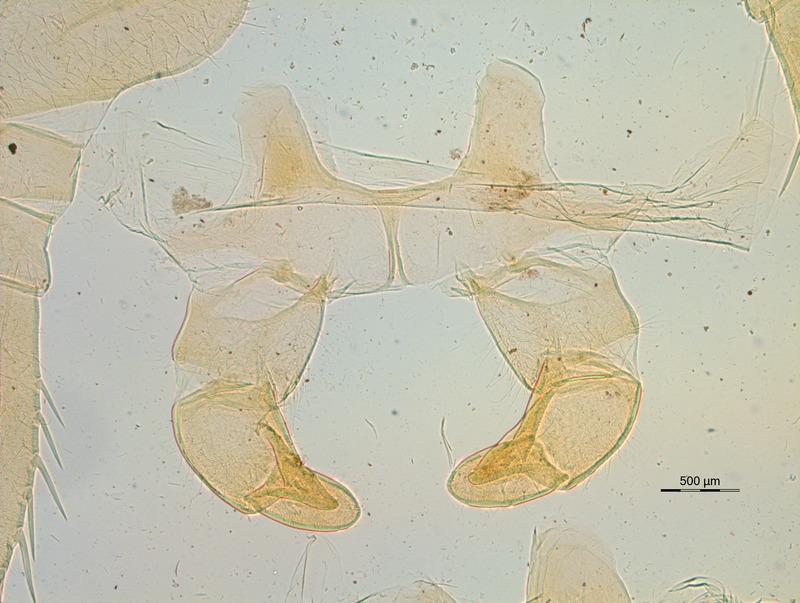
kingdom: Animalia
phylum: Arthropoda
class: Diplopoda
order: Sphaerotheriida
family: Zephroniidae
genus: Sphaerobelum
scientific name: Sphaerobelum hirsutum
